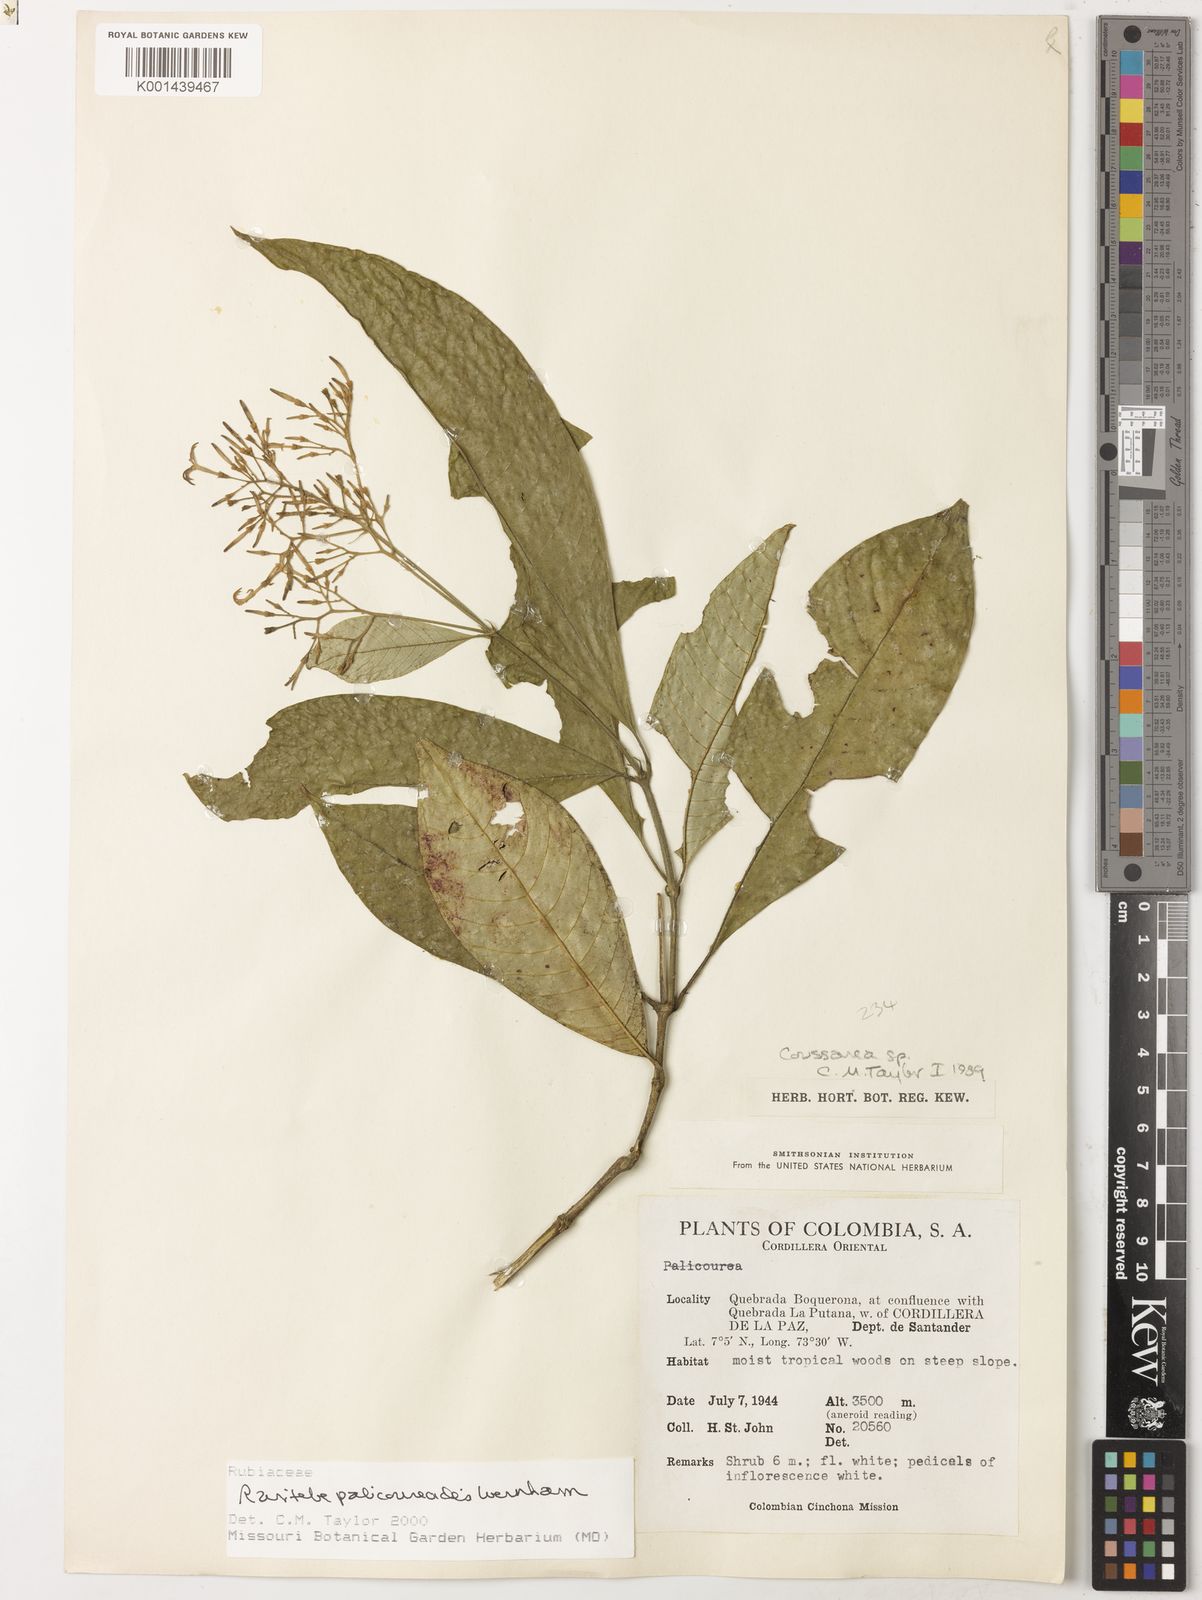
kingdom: Plantae
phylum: Tracheophyta
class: Magnoliopsida
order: Gentianales
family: Rubiaceae
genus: Raritebe
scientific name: Raritebe palicoureoides
